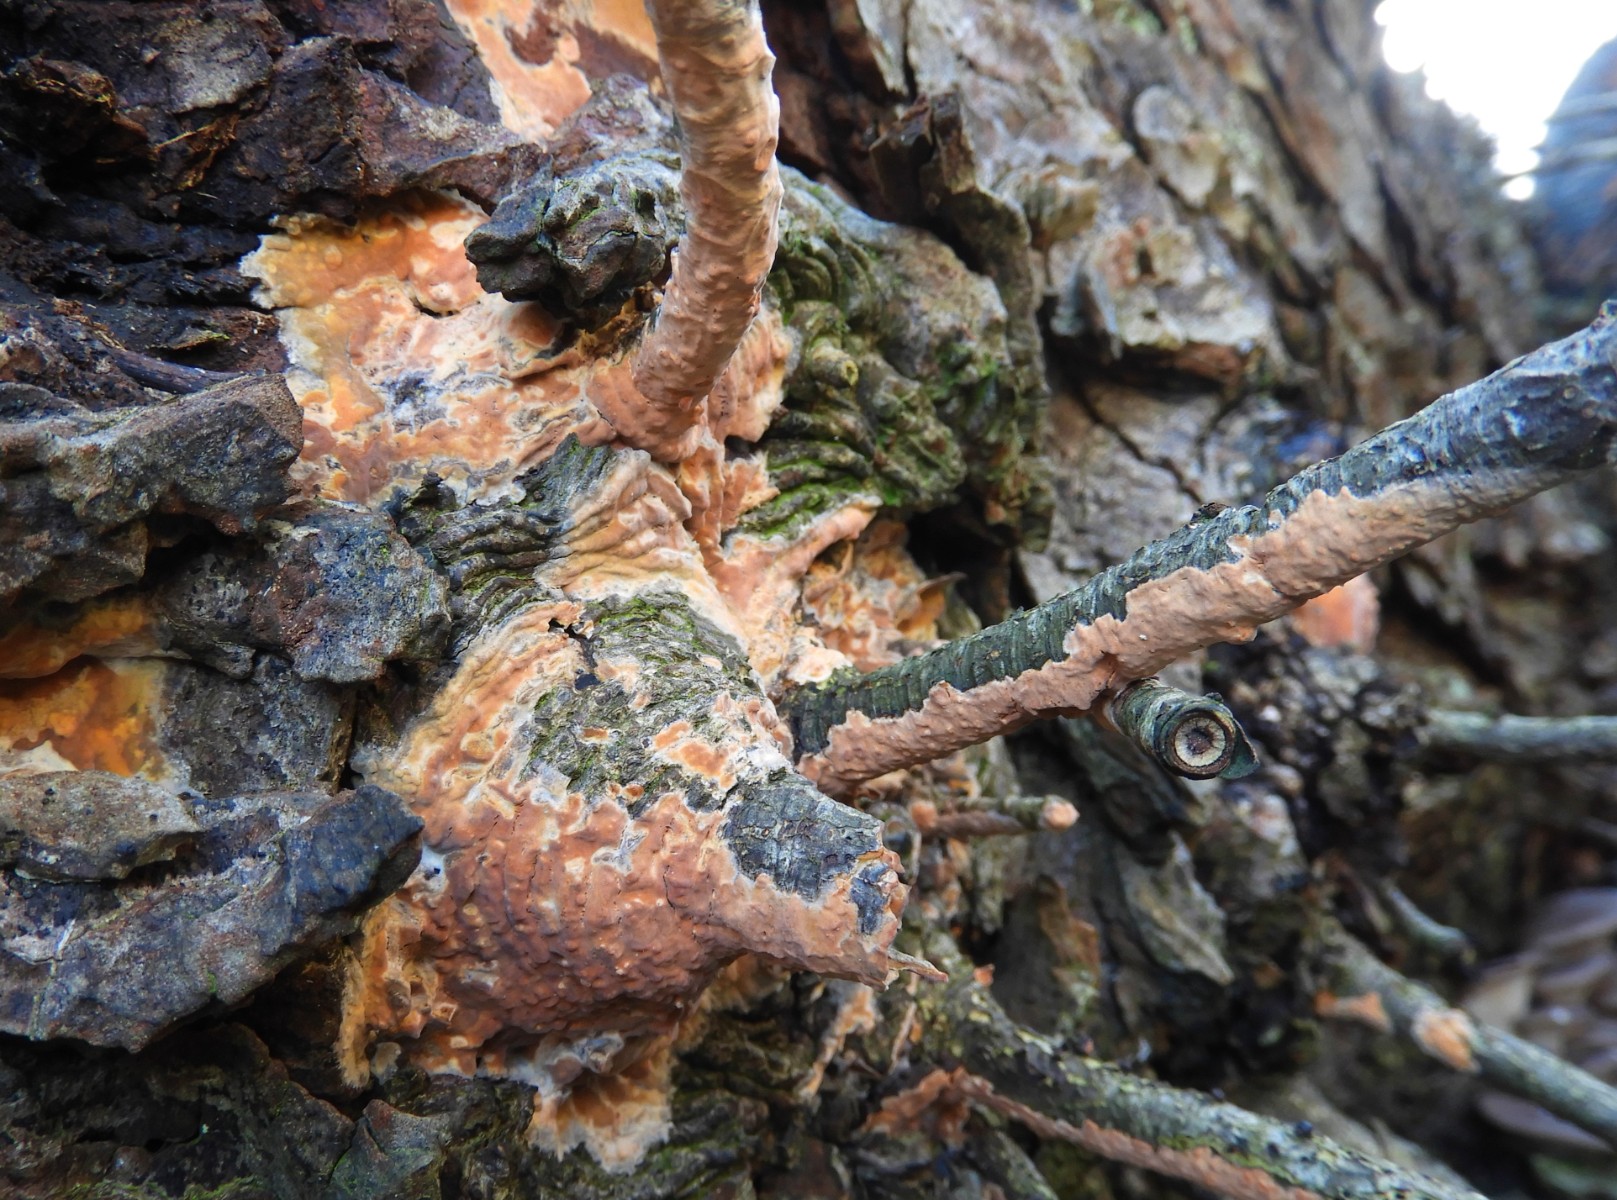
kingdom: Fungi
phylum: Basidiomycota
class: Agaricomycetes
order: Russulales
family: Peniophoraceae
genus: Peniophora
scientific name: Peniophora incarnata
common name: laksefarvet voksskind
